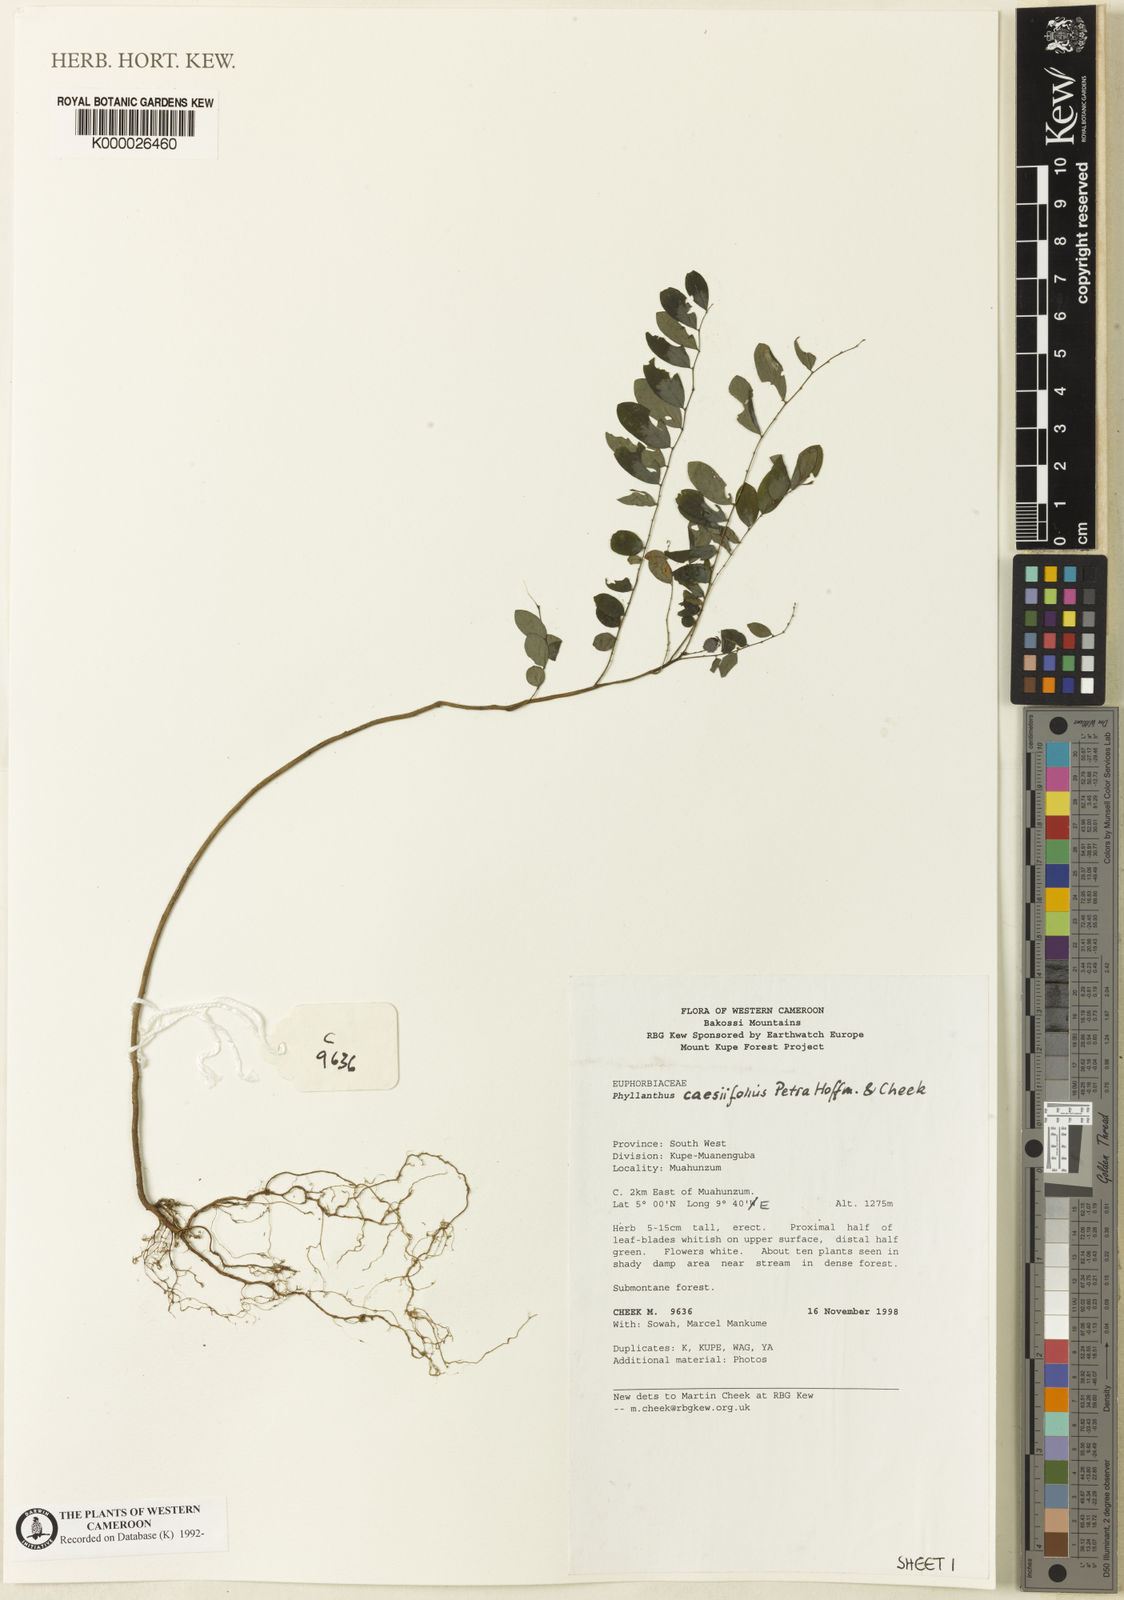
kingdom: Plantae
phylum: Tracheophyta
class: Magnoliopsida
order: Malpighiales
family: Phyllanthaceae
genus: Phyllanthus
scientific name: Phyllanthus caesiifolius
